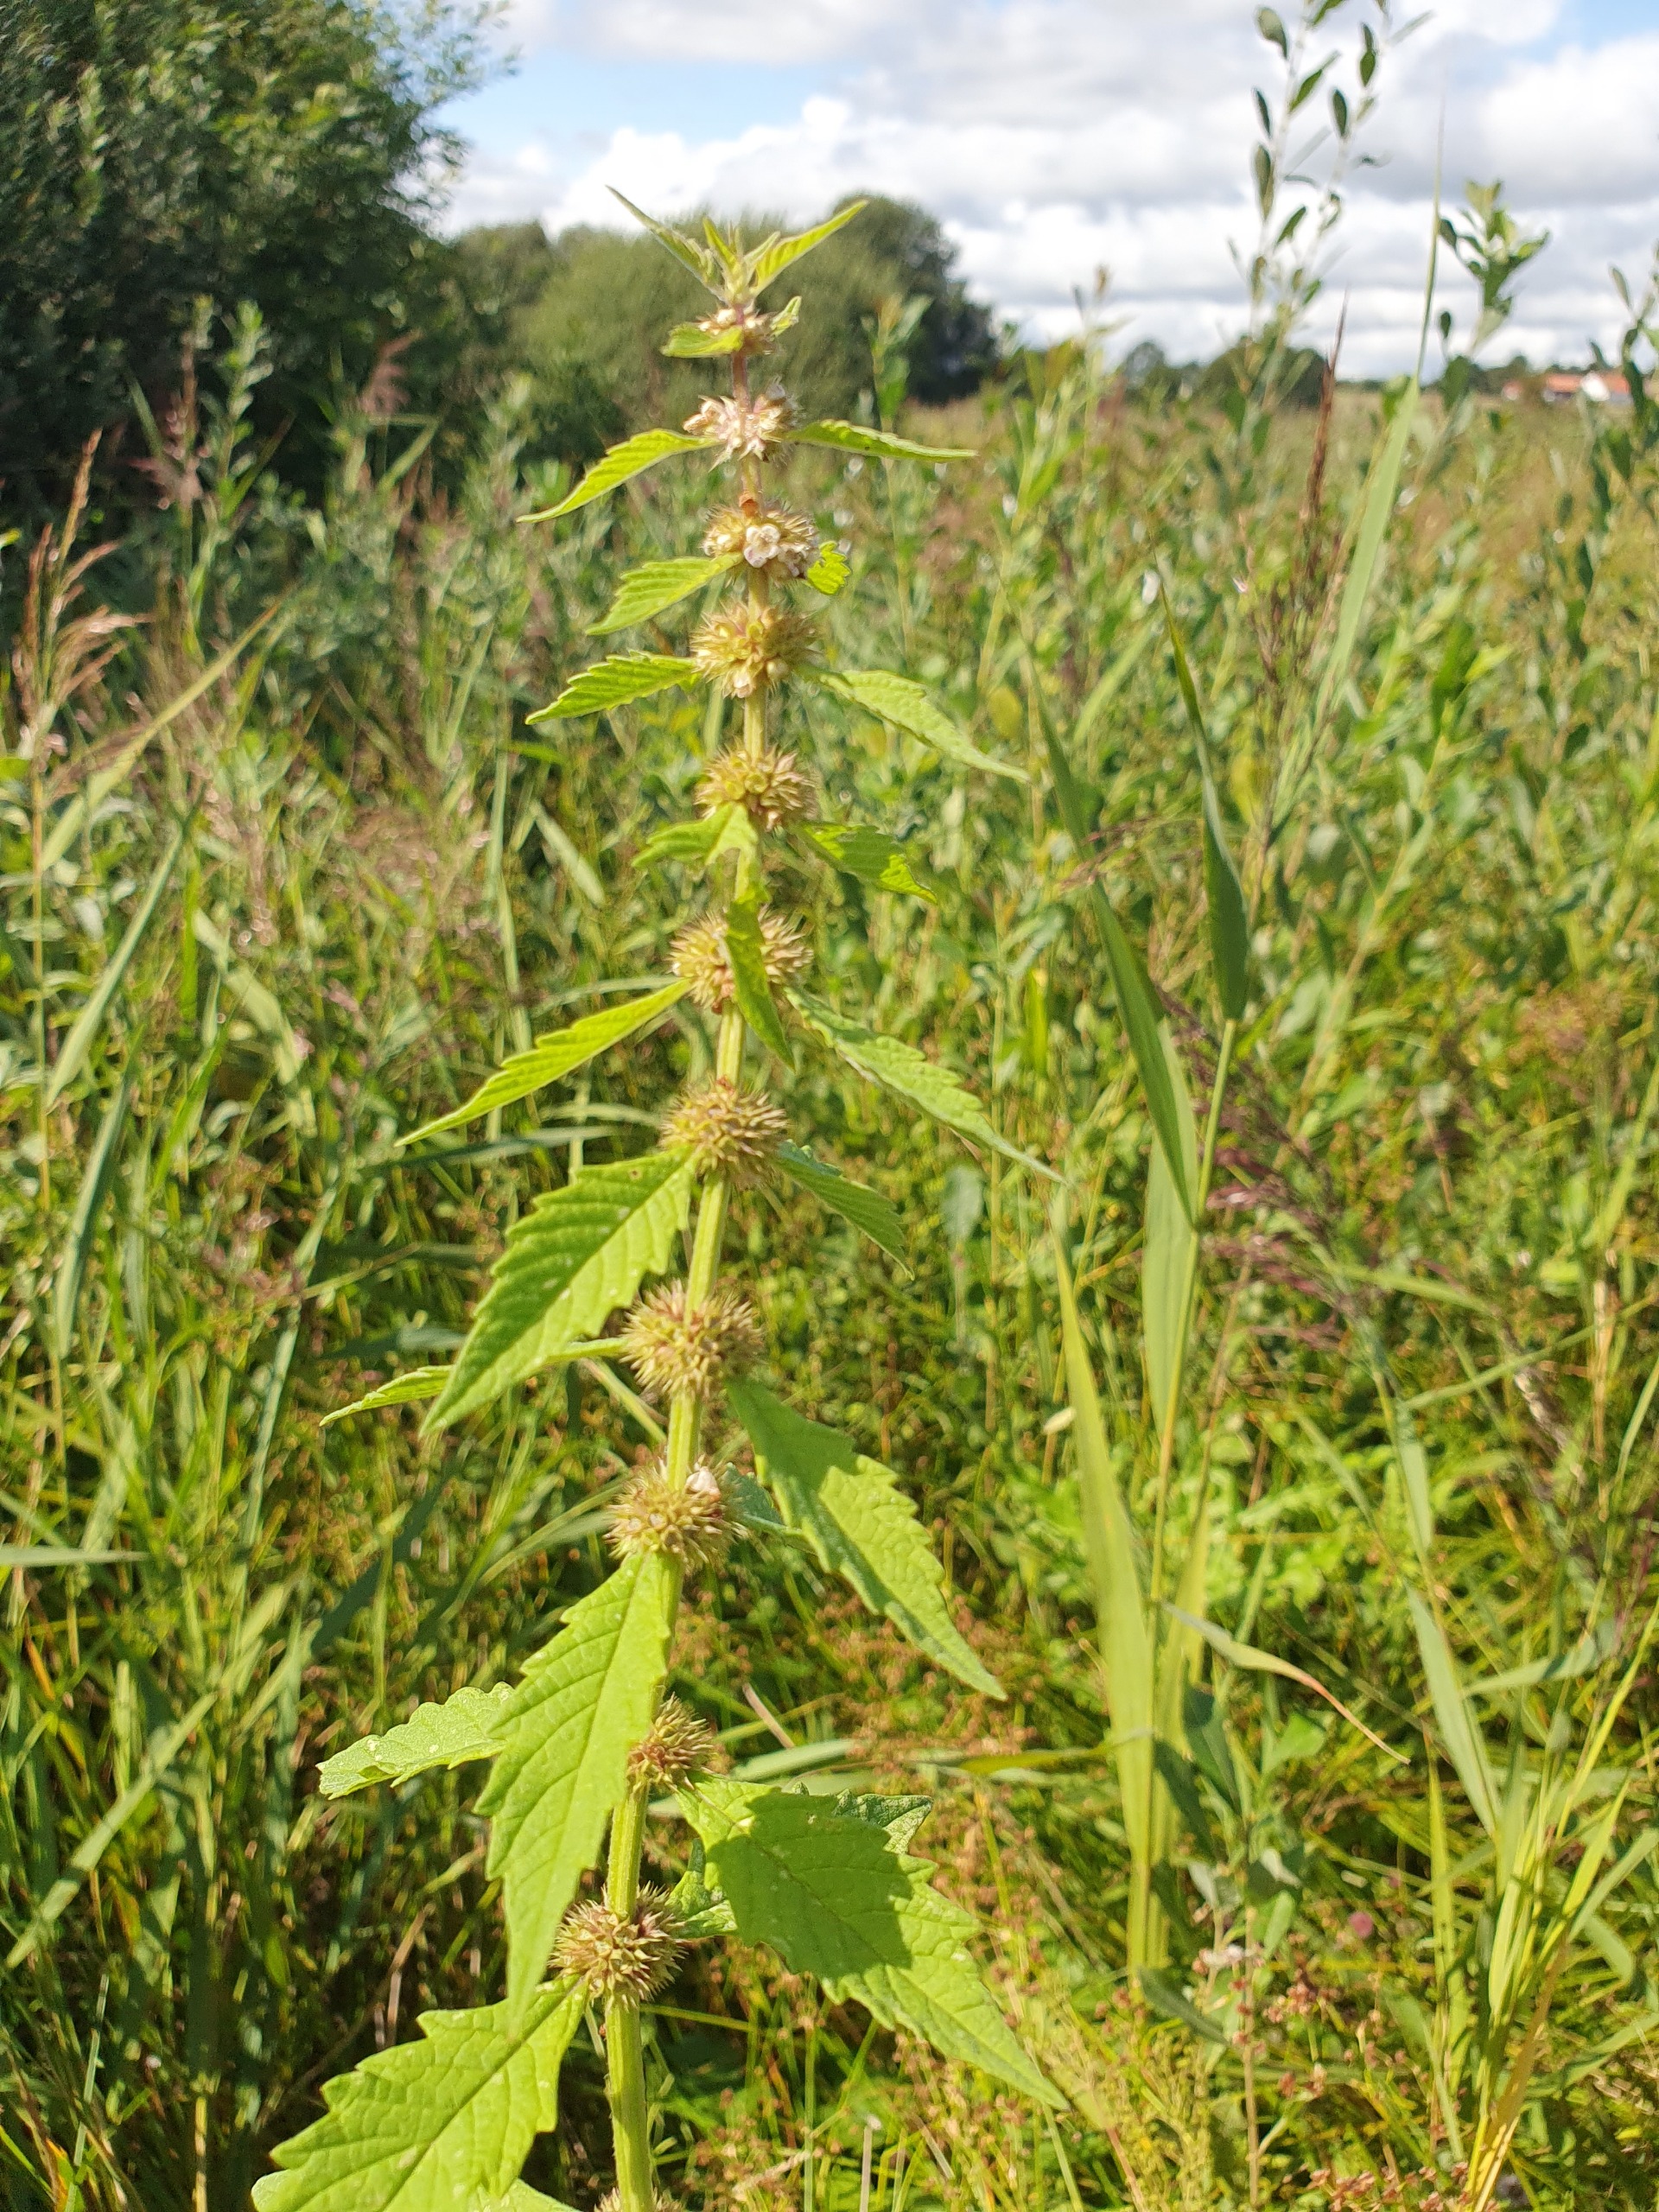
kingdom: Plantae
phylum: Tracheophyta
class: Magnoliopsida
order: Lamiales
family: Lamiaceae
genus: Lycopus
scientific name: Lycopus europaeus
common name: Sværtevæld
